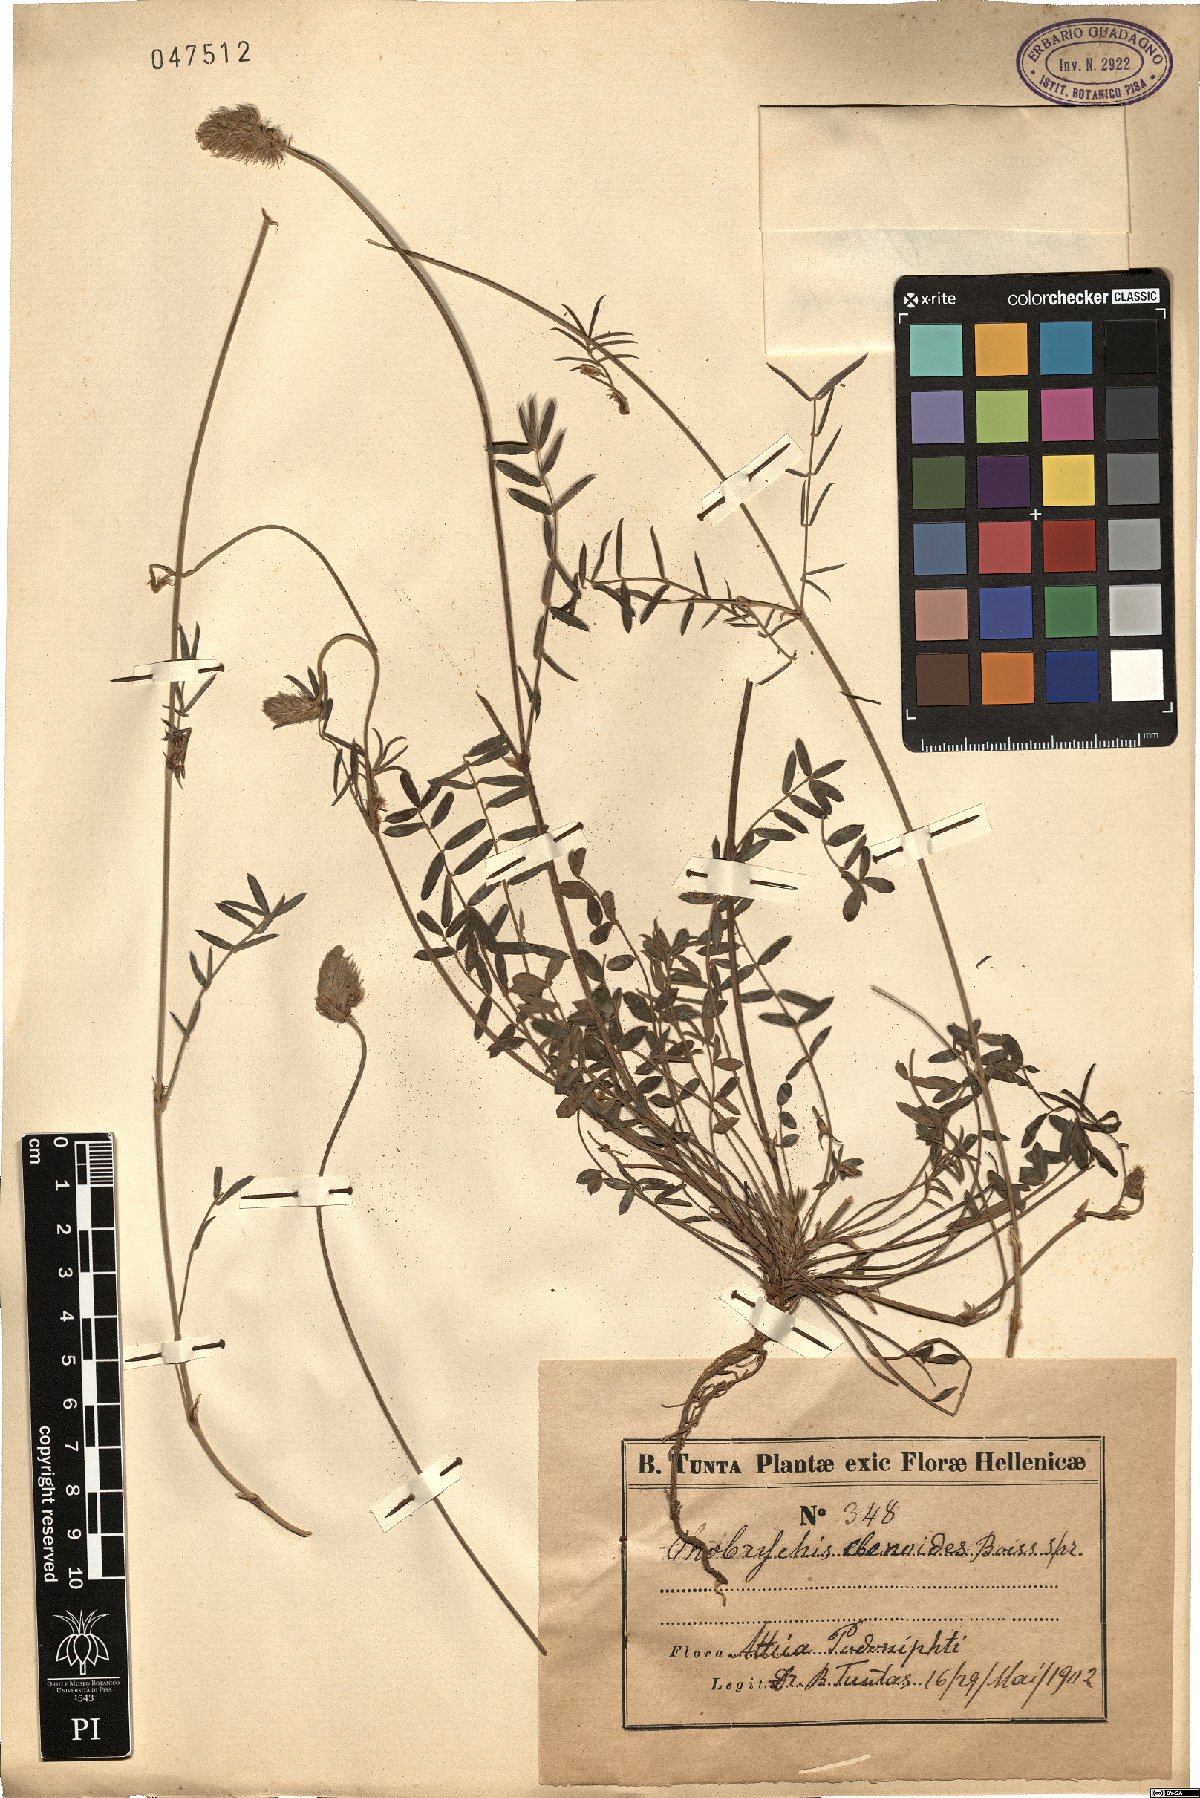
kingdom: Plantae
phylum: Tracheophyta
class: Magnoliopsida
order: Fabales
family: Fabaceae
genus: Onobrychis
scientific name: Onobrychis ebenoides
